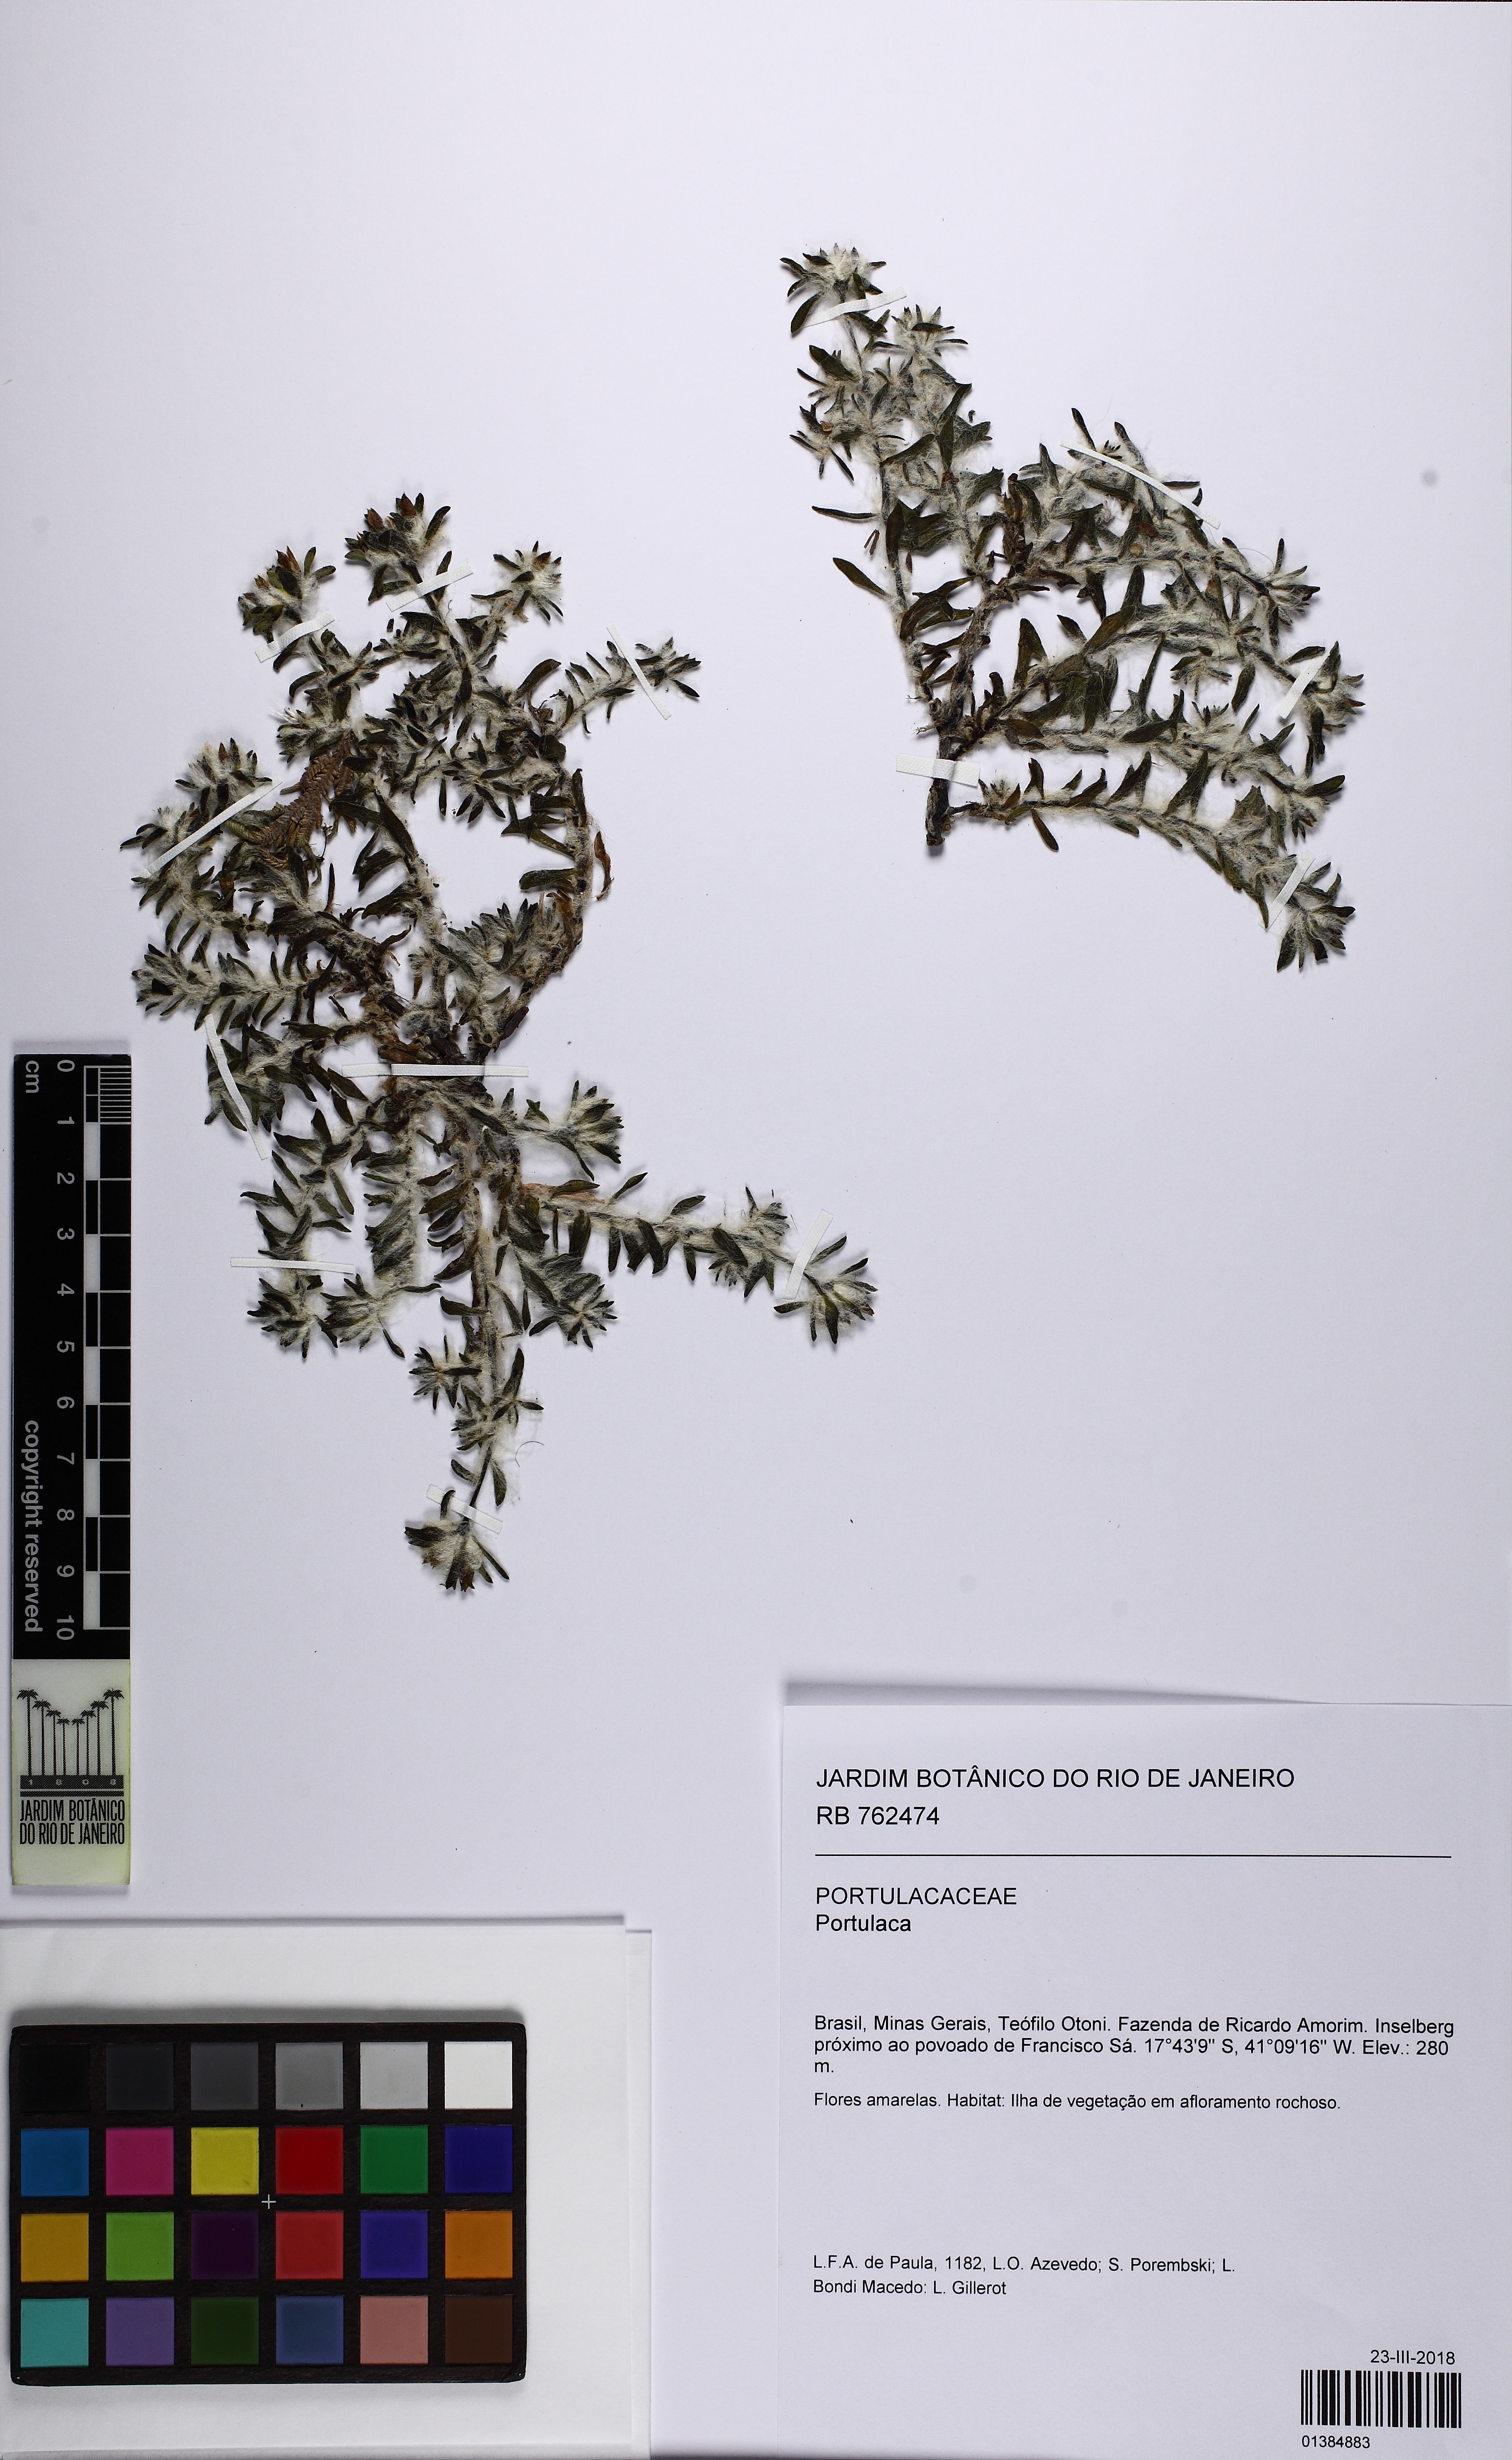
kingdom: Plantae
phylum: Tracheophyta
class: Magnoliopsida
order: Caryophyllales
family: Portulacaceae
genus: Portulaca
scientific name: Portulaca
